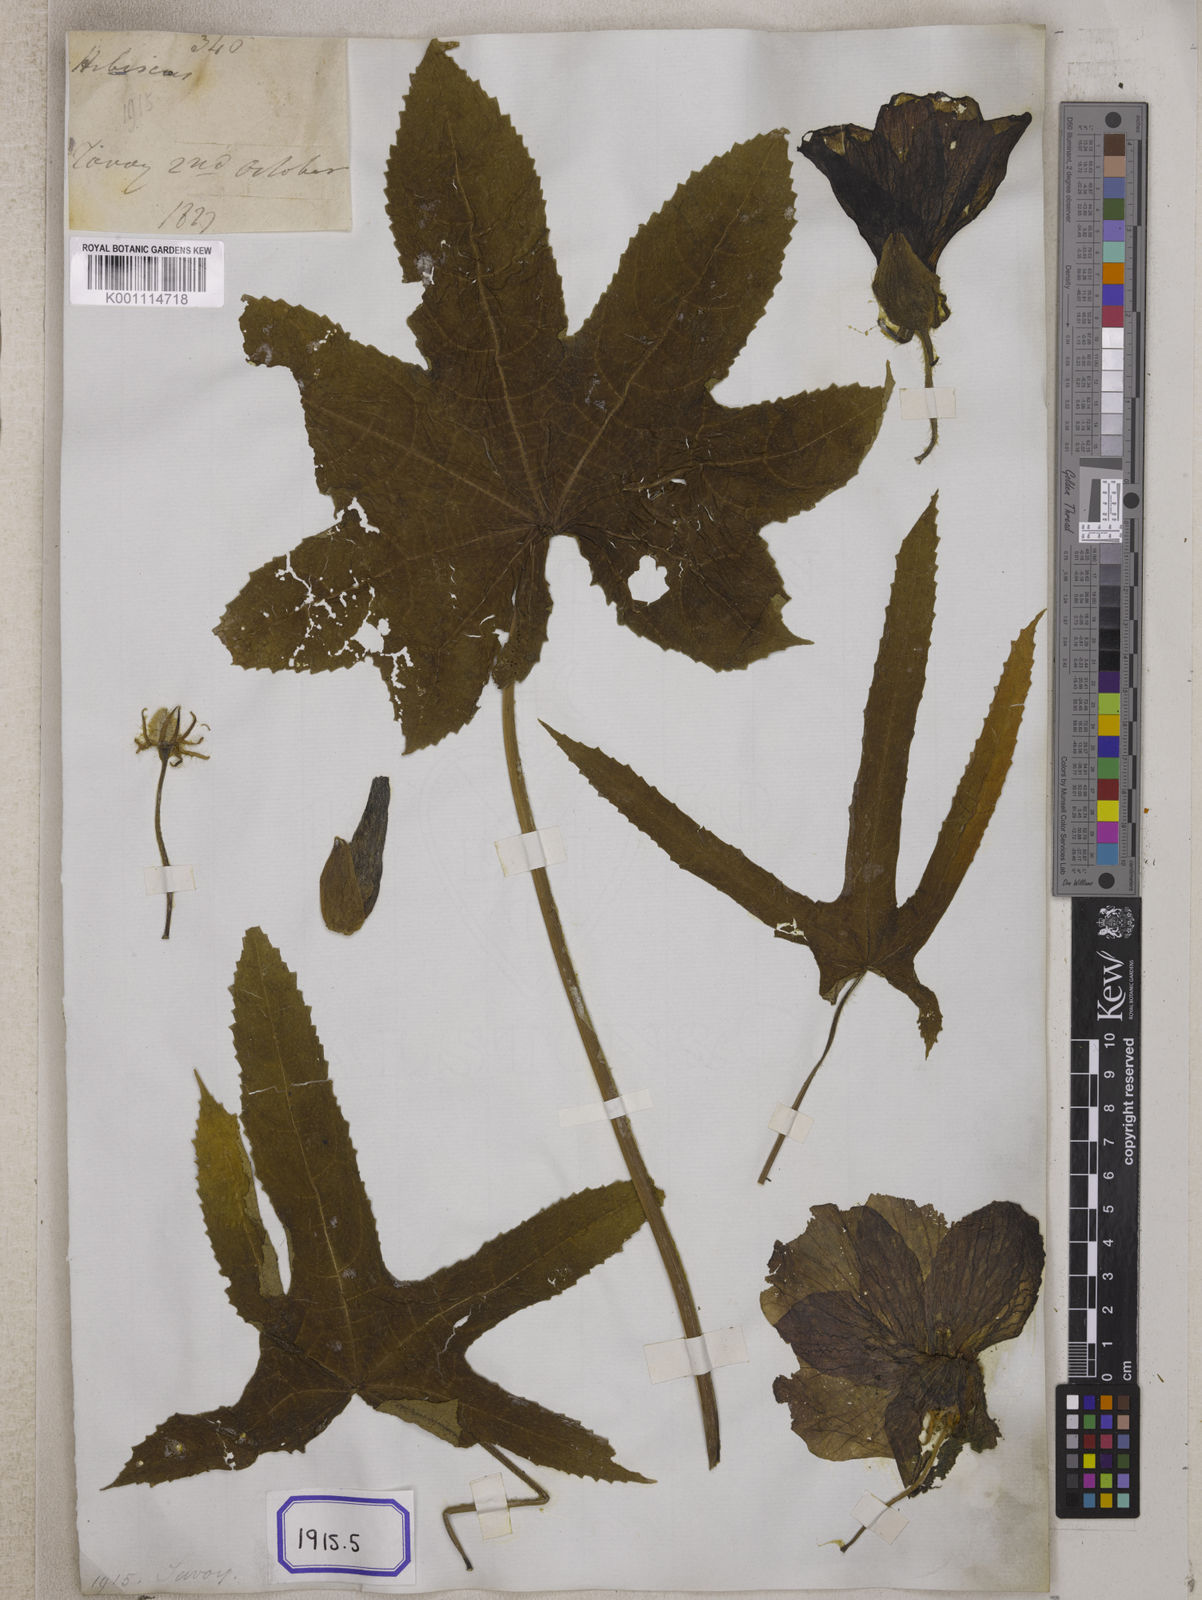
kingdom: Plantae
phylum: Tracheophyta
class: Magnoliopsida
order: Malvales
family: Malvaceae
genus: Bamia
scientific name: Bamia
